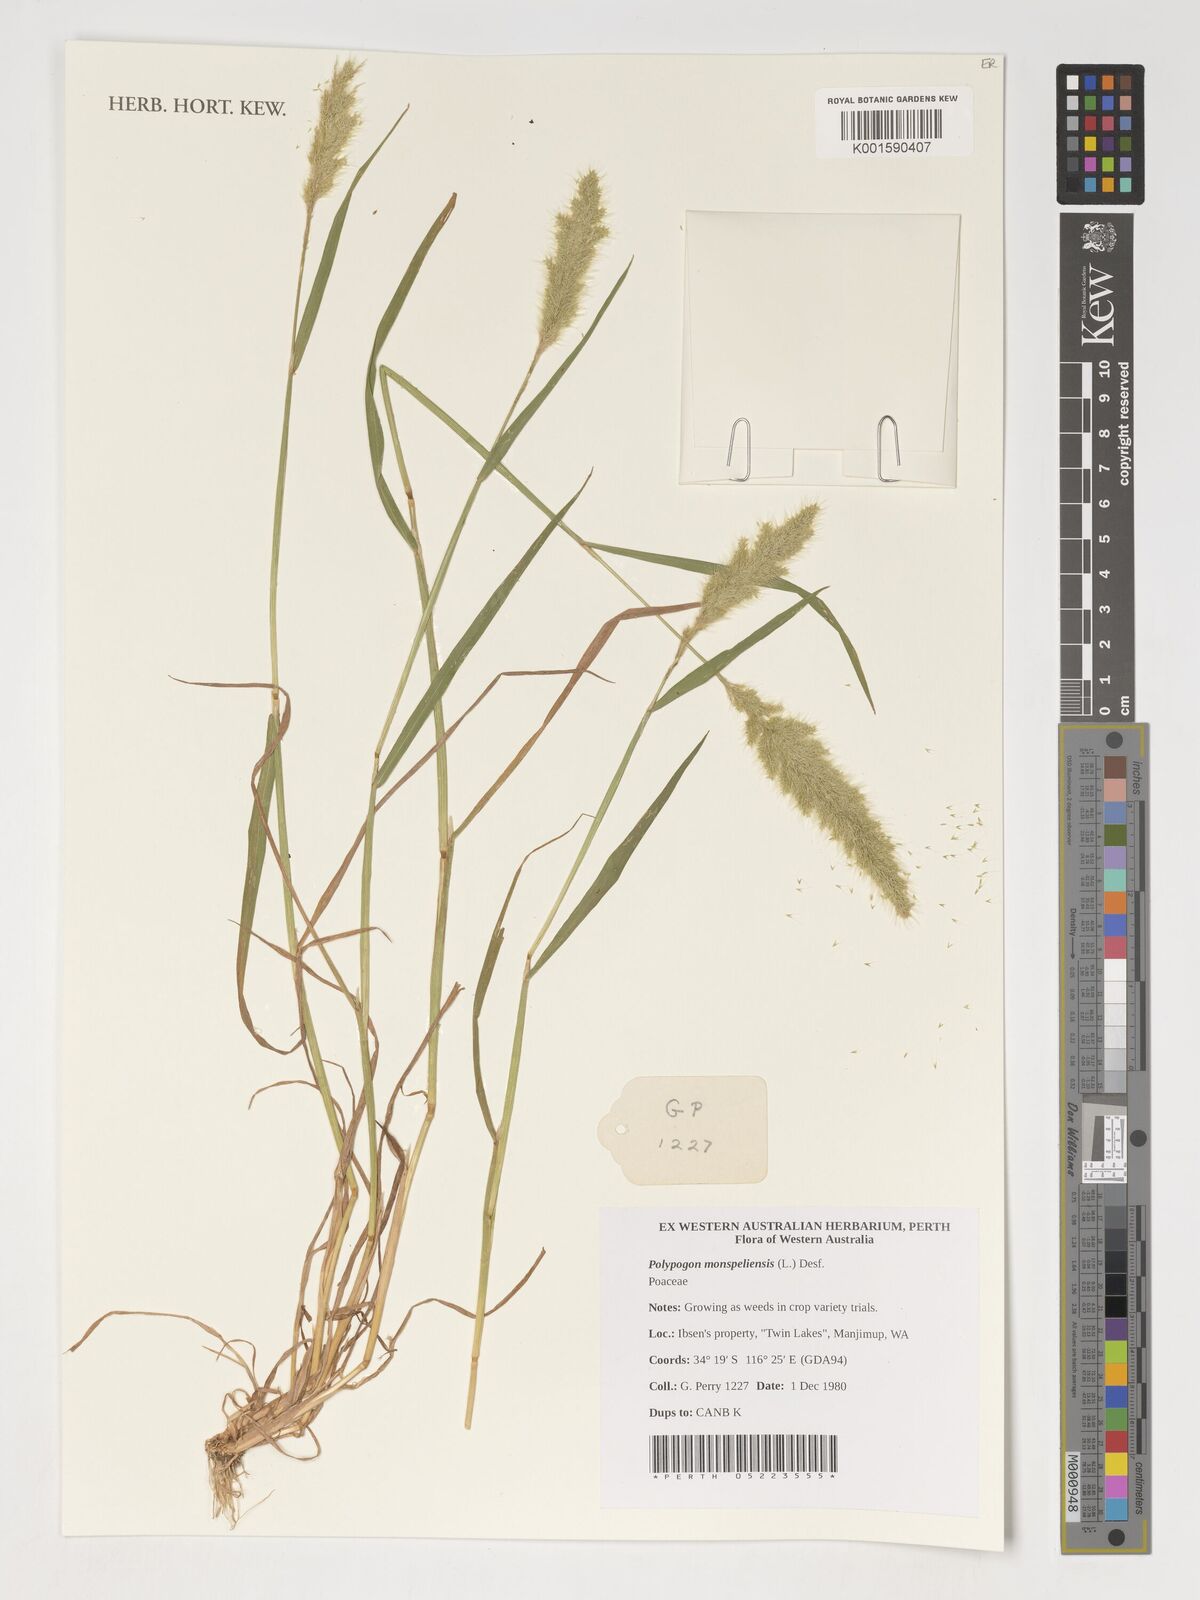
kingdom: Plantae
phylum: Tracheophyta
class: Liliopsida
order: Poales
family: Poaceae
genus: Polypogon
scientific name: Polypogon monspeliensis
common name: Annual rabbitsfoot grass
